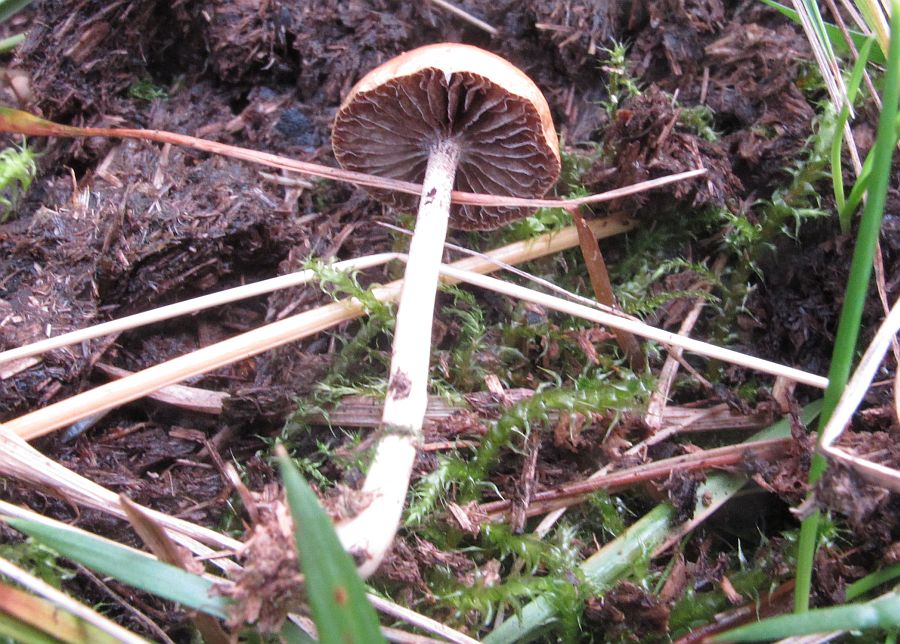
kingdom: Fungi
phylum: Basidiomycota
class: Agaricomycetes
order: Agaricales
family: Strophariaceae
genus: Protostropharia
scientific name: Protostropharia semiglobata
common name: halvkugleformet bredblad
